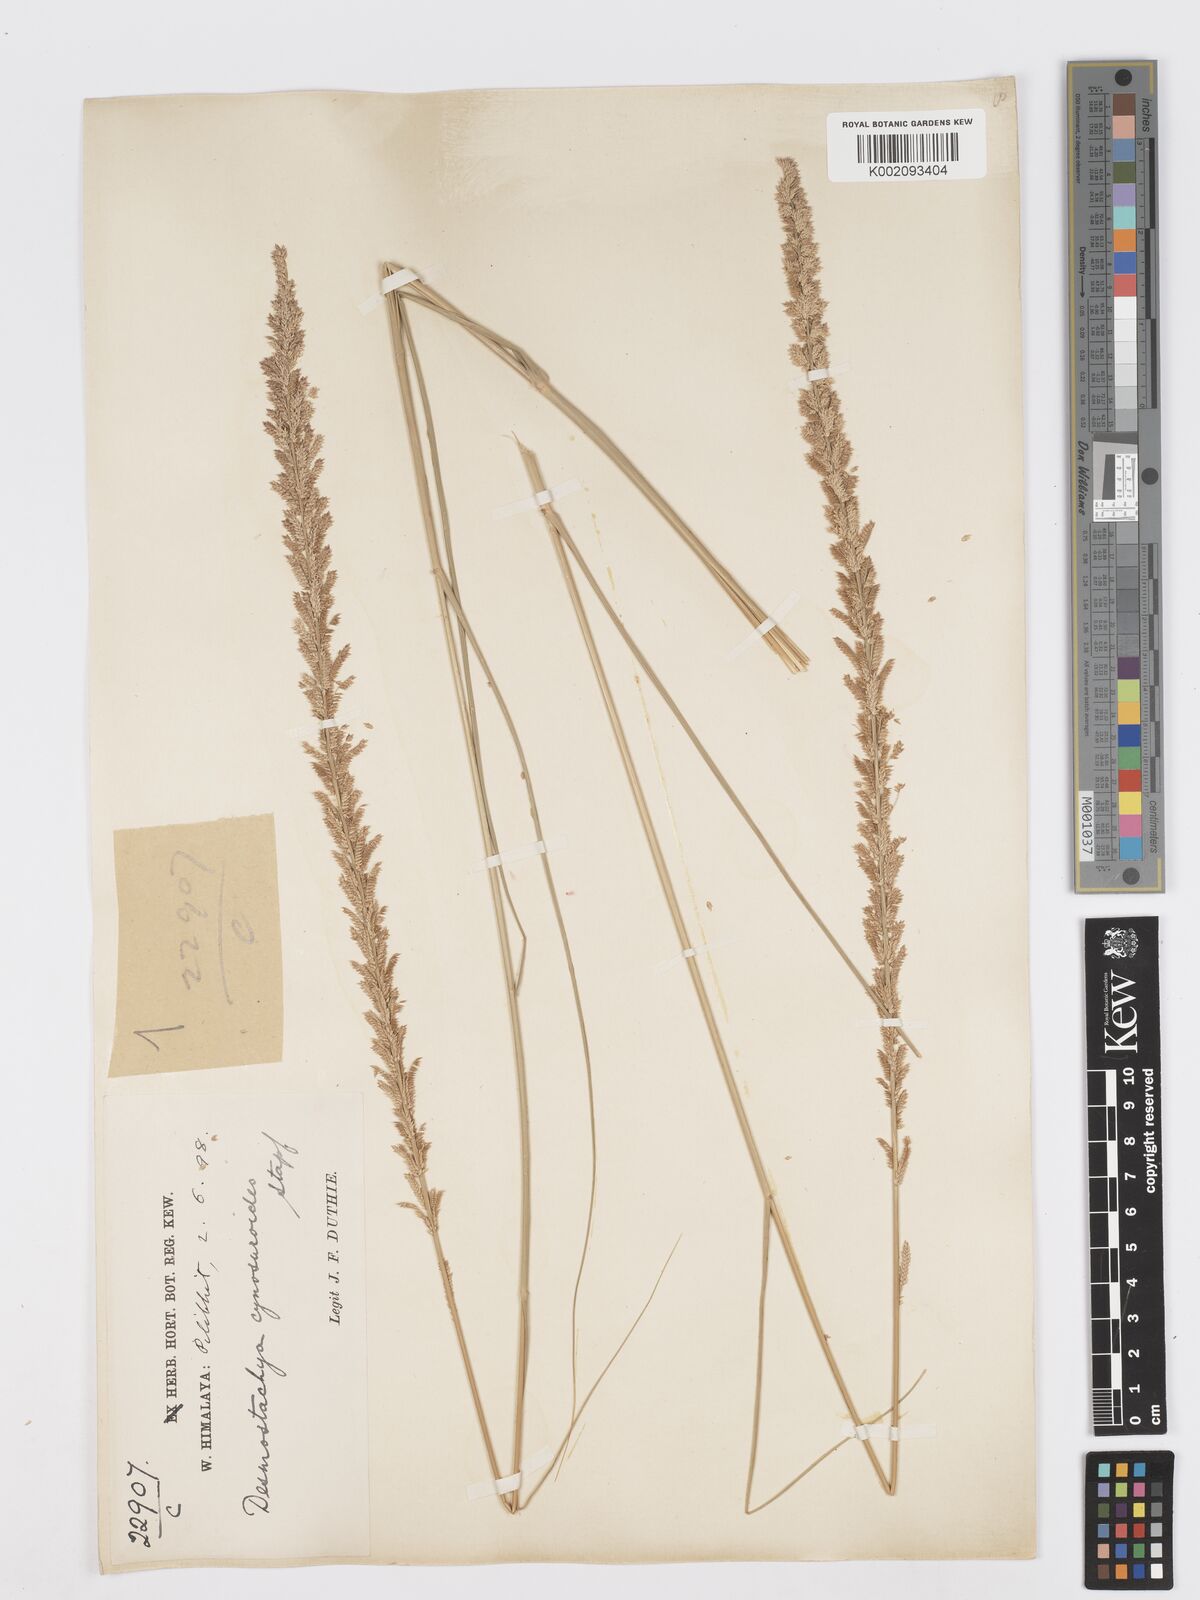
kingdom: Plantae
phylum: Tracheophyta
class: Liliopsida
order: Poales
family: Poaceae
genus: Desmostachya
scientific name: Desmostachya bipinnata
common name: Crowfoot grass
